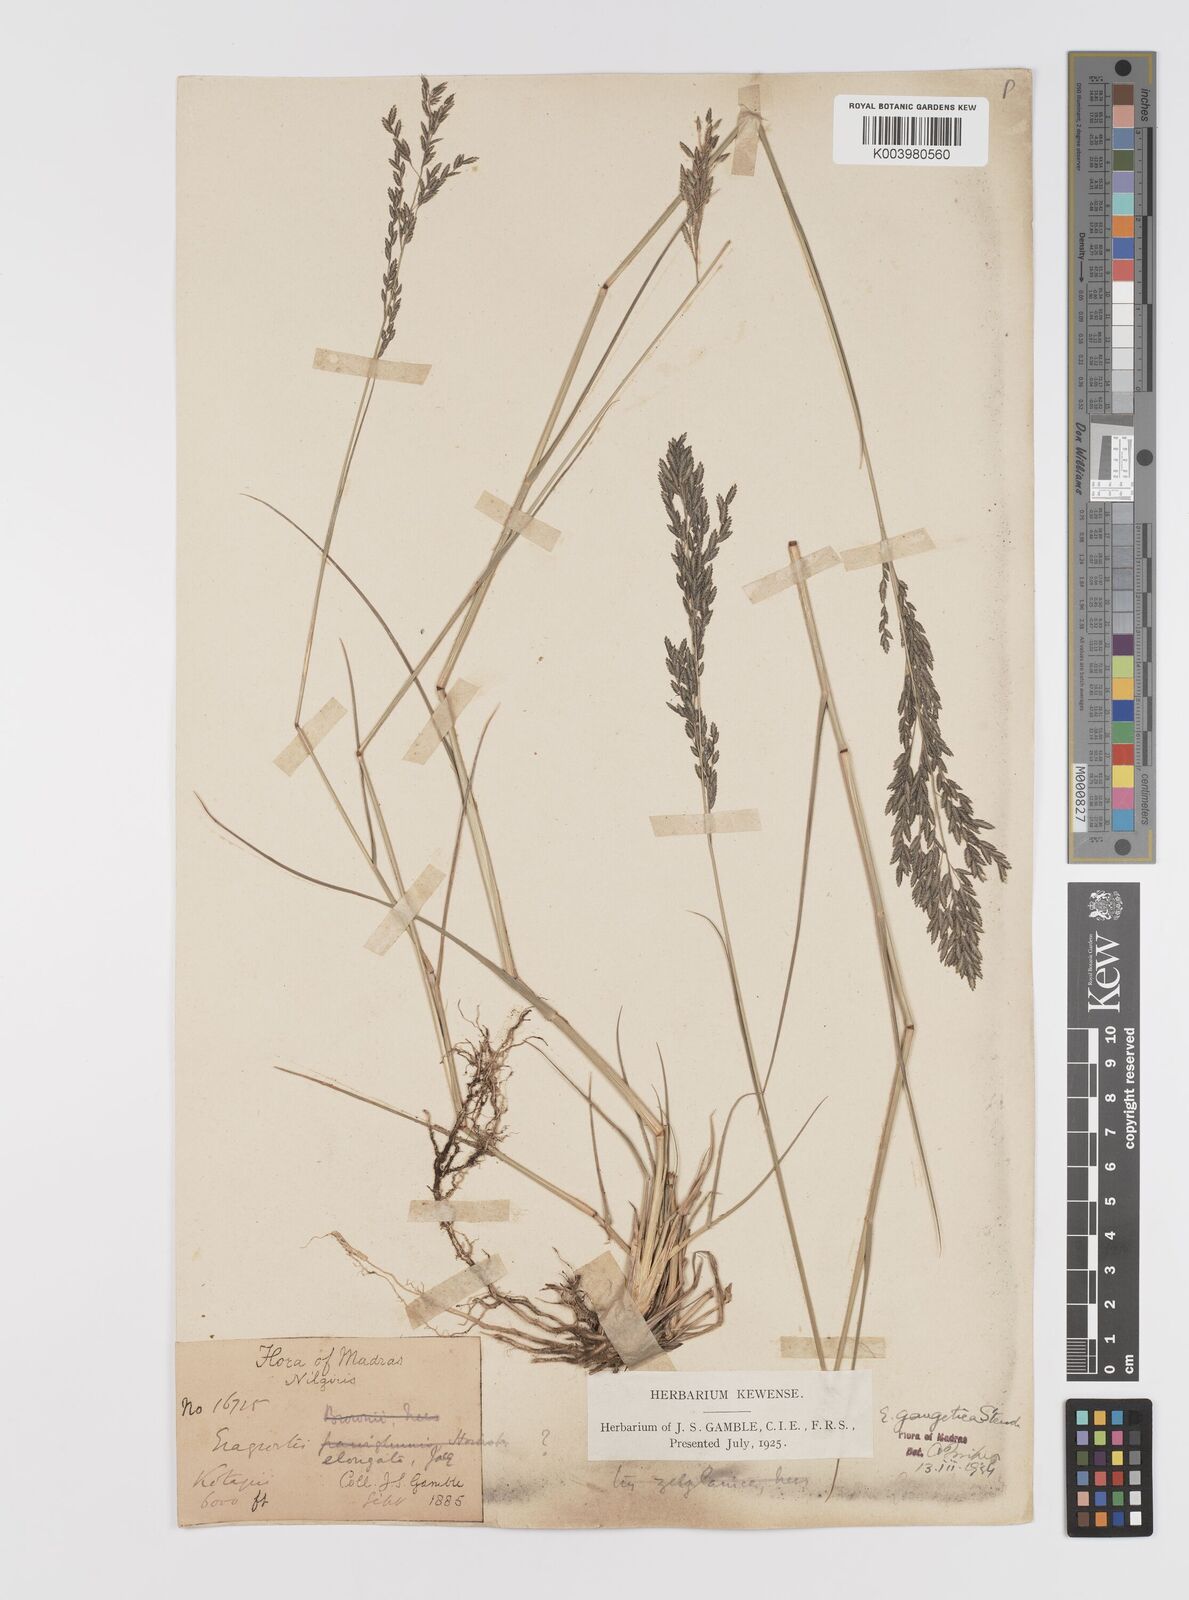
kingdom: Plantae
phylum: Tracheophyta
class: Liliopsida
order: Poales
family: Poaceae
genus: Eragrostis
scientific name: Eragrostis
